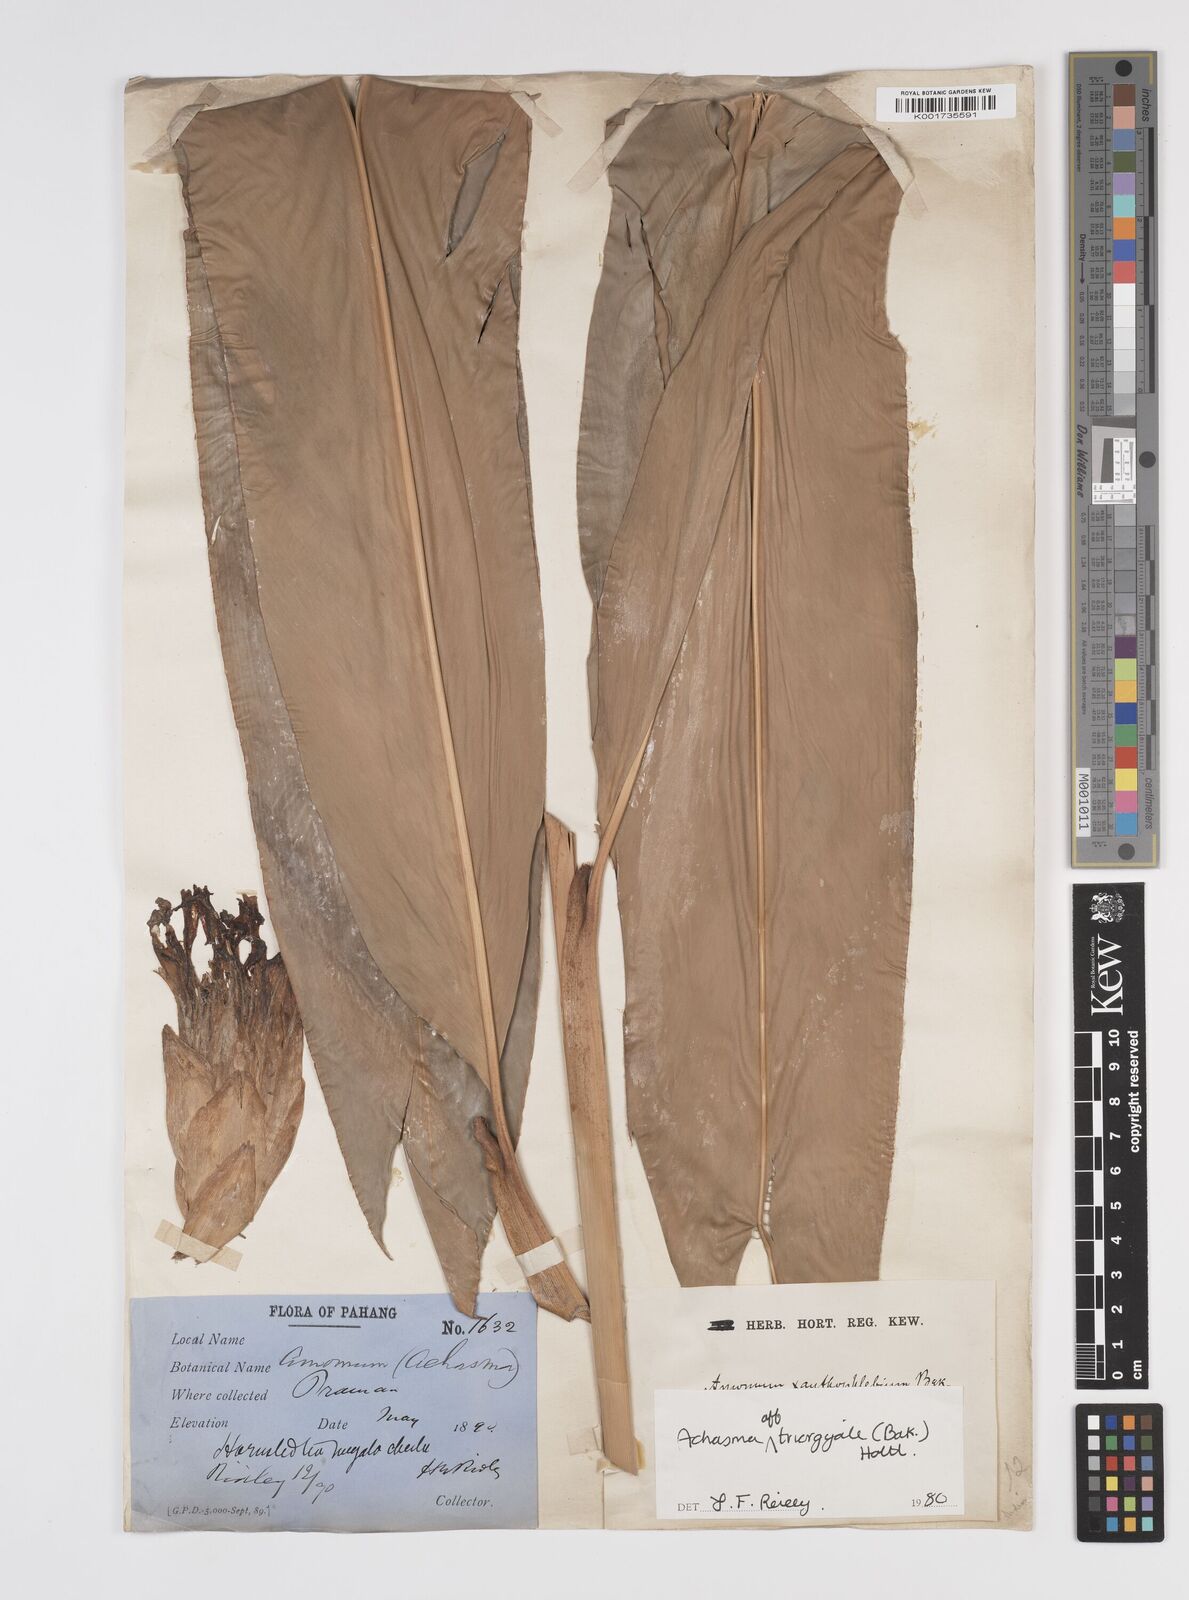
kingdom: Plantae
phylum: Tracheophyta
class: Liliopsida
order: Zingiberales
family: Zingiberaceae
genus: Etlingera
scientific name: Etlingera
